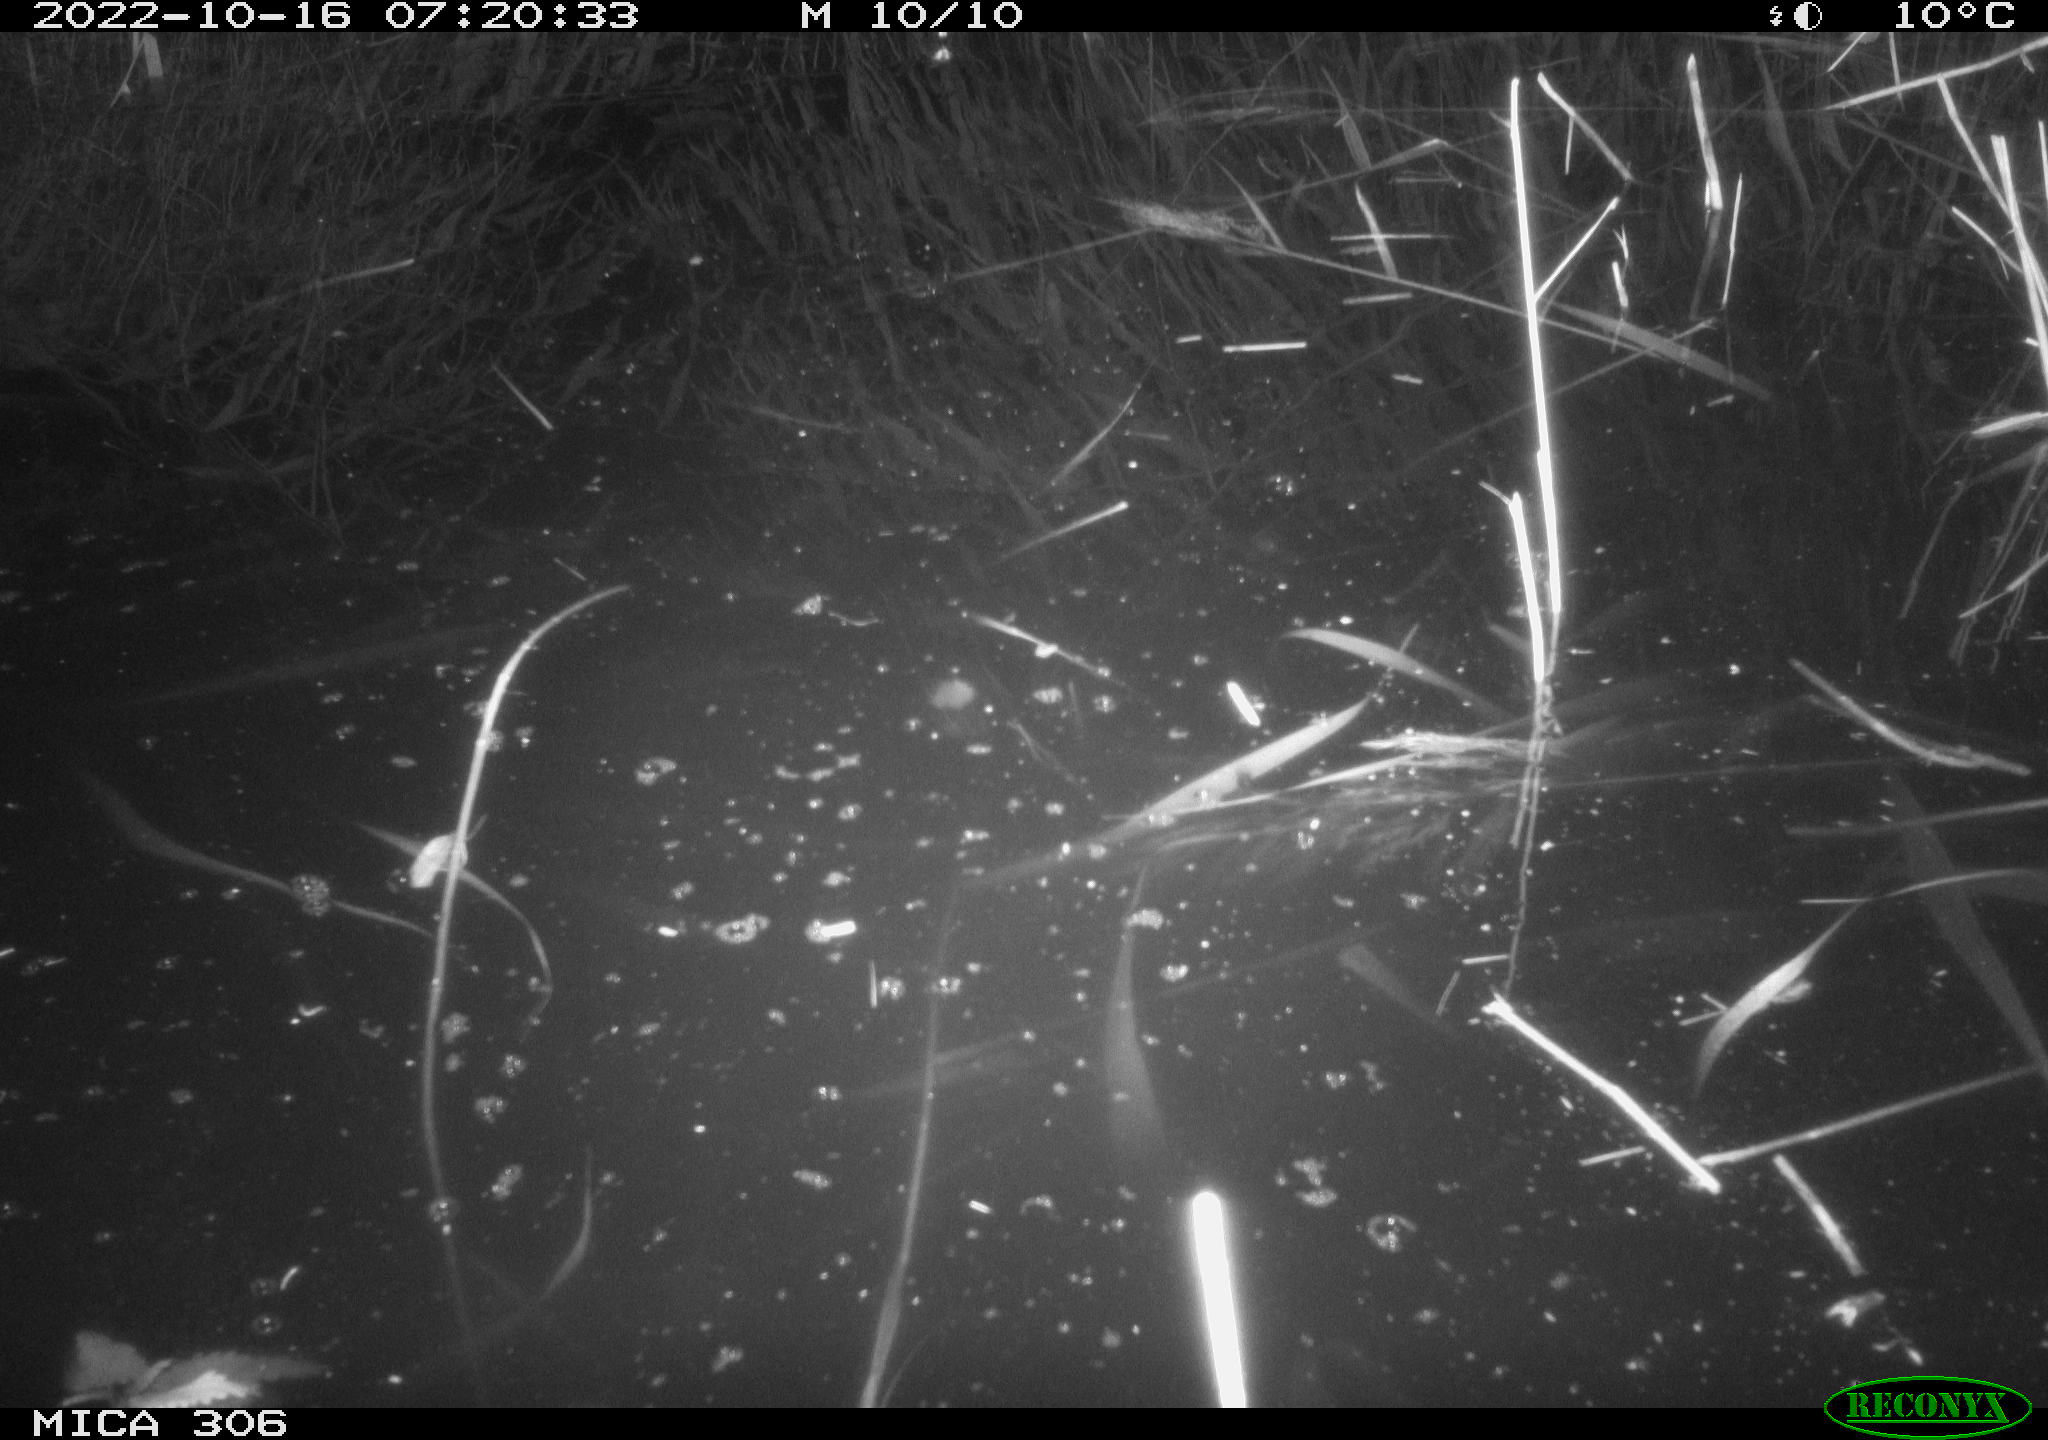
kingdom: Animalia
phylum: Chordata
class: Mammalia
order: Rodentia
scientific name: Rodentia
